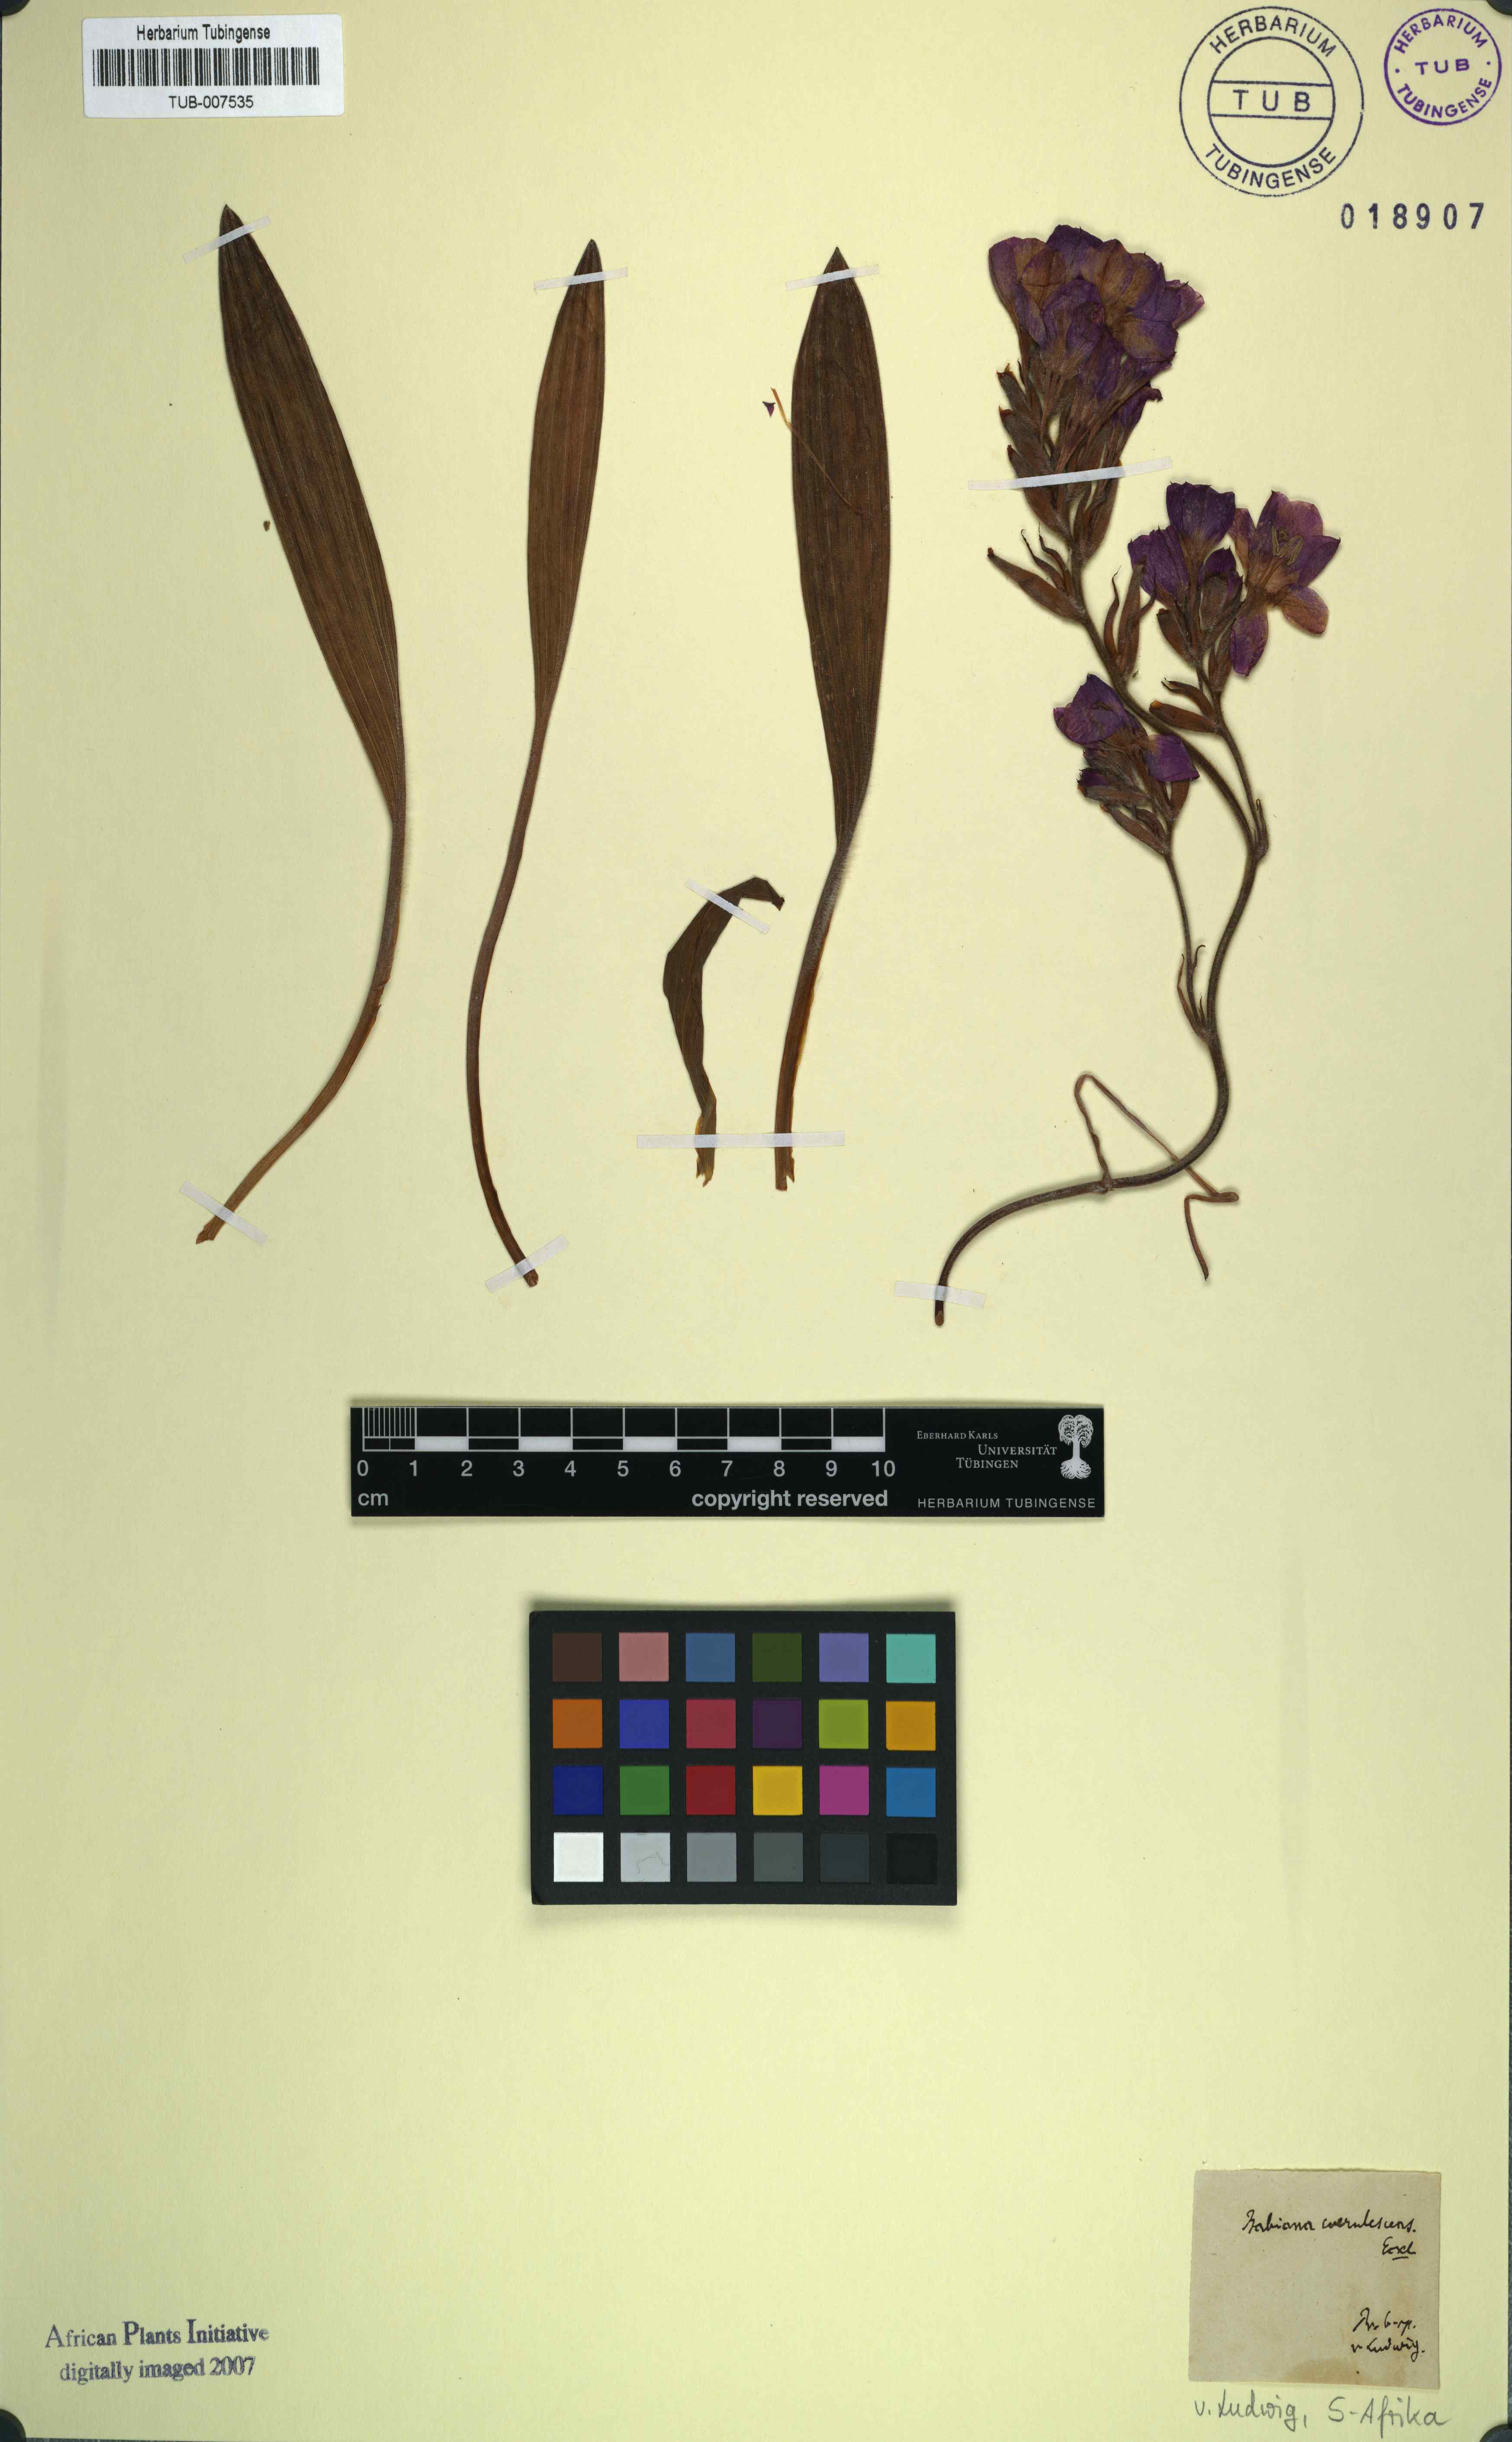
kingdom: Plantae
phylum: Tracheophyta
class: Liliopsida
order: Asparagales
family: Iridaceae
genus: Babiana
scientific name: Babiana patersoniae
